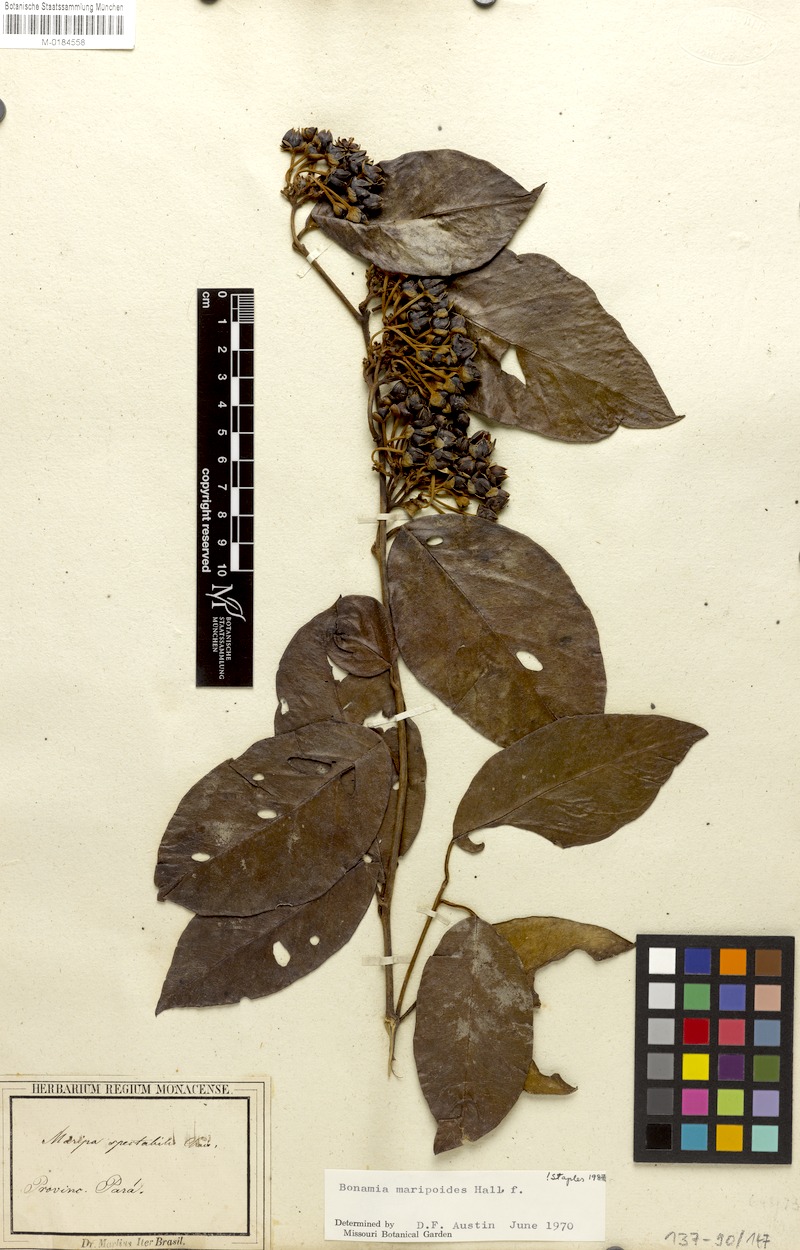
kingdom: Plantae
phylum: Tracheophyta
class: Magnoliopsida
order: Solanales
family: Convolvulaceae
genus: Bonamia
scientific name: Bonamia maripoides
